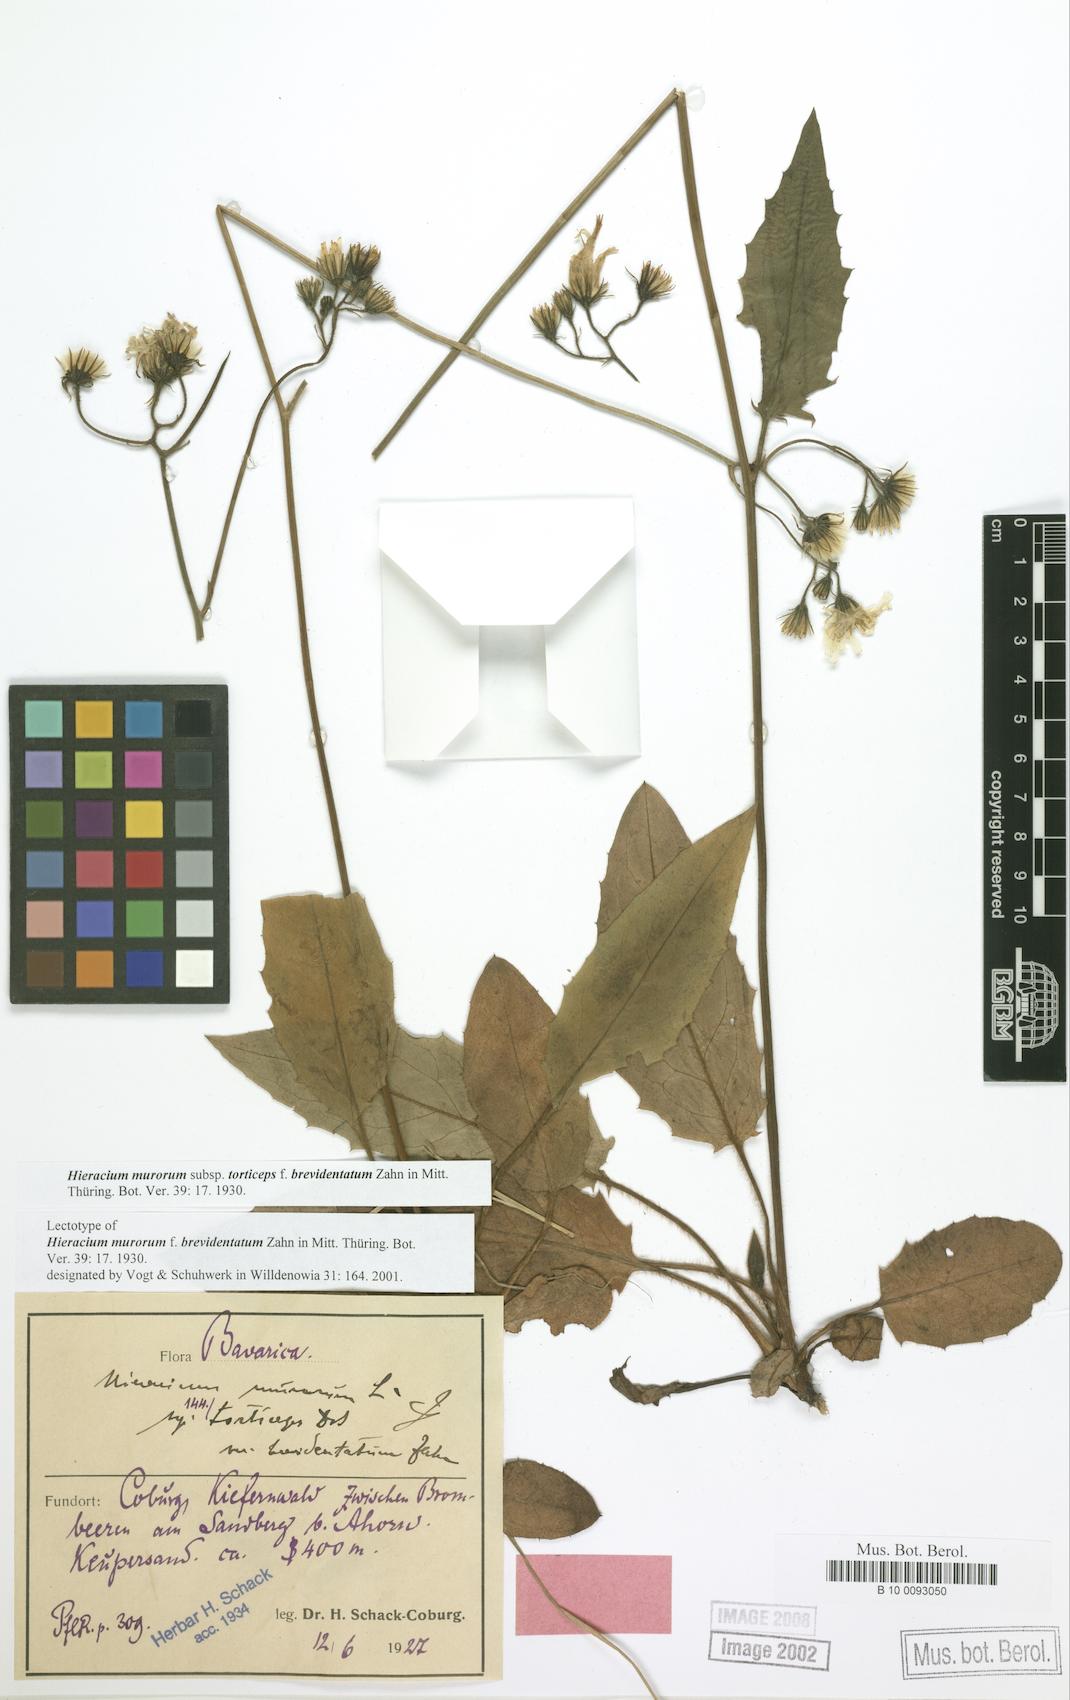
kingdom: Plantae
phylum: Tracheophyta
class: Magnoliopsida
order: Asterales
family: Asteraceae
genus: Hieracium
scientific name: Hieracium murorum
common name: Wall hawkweed
